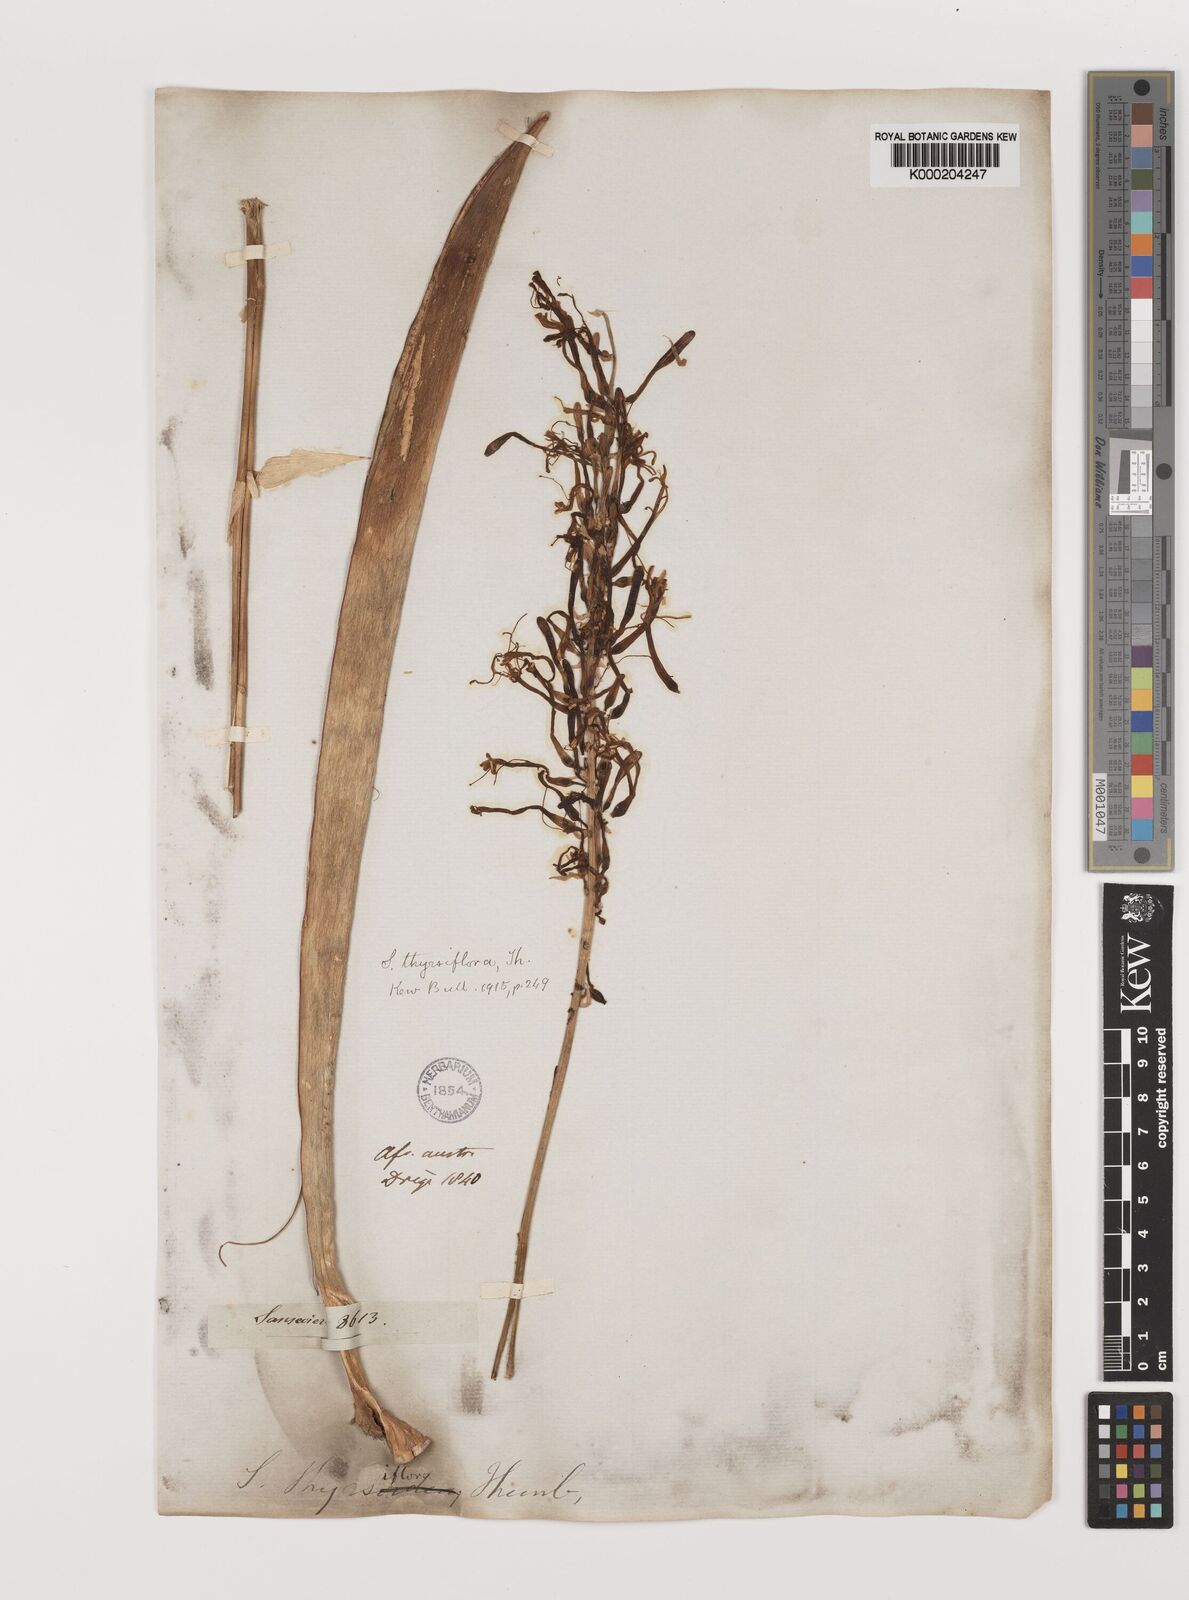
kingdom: Plantae
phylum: Tracheophyta
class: Liliopsida
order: Asparagales
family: Asparagaceae
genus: Dracaena
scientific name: Dracaena hyacinthoides
